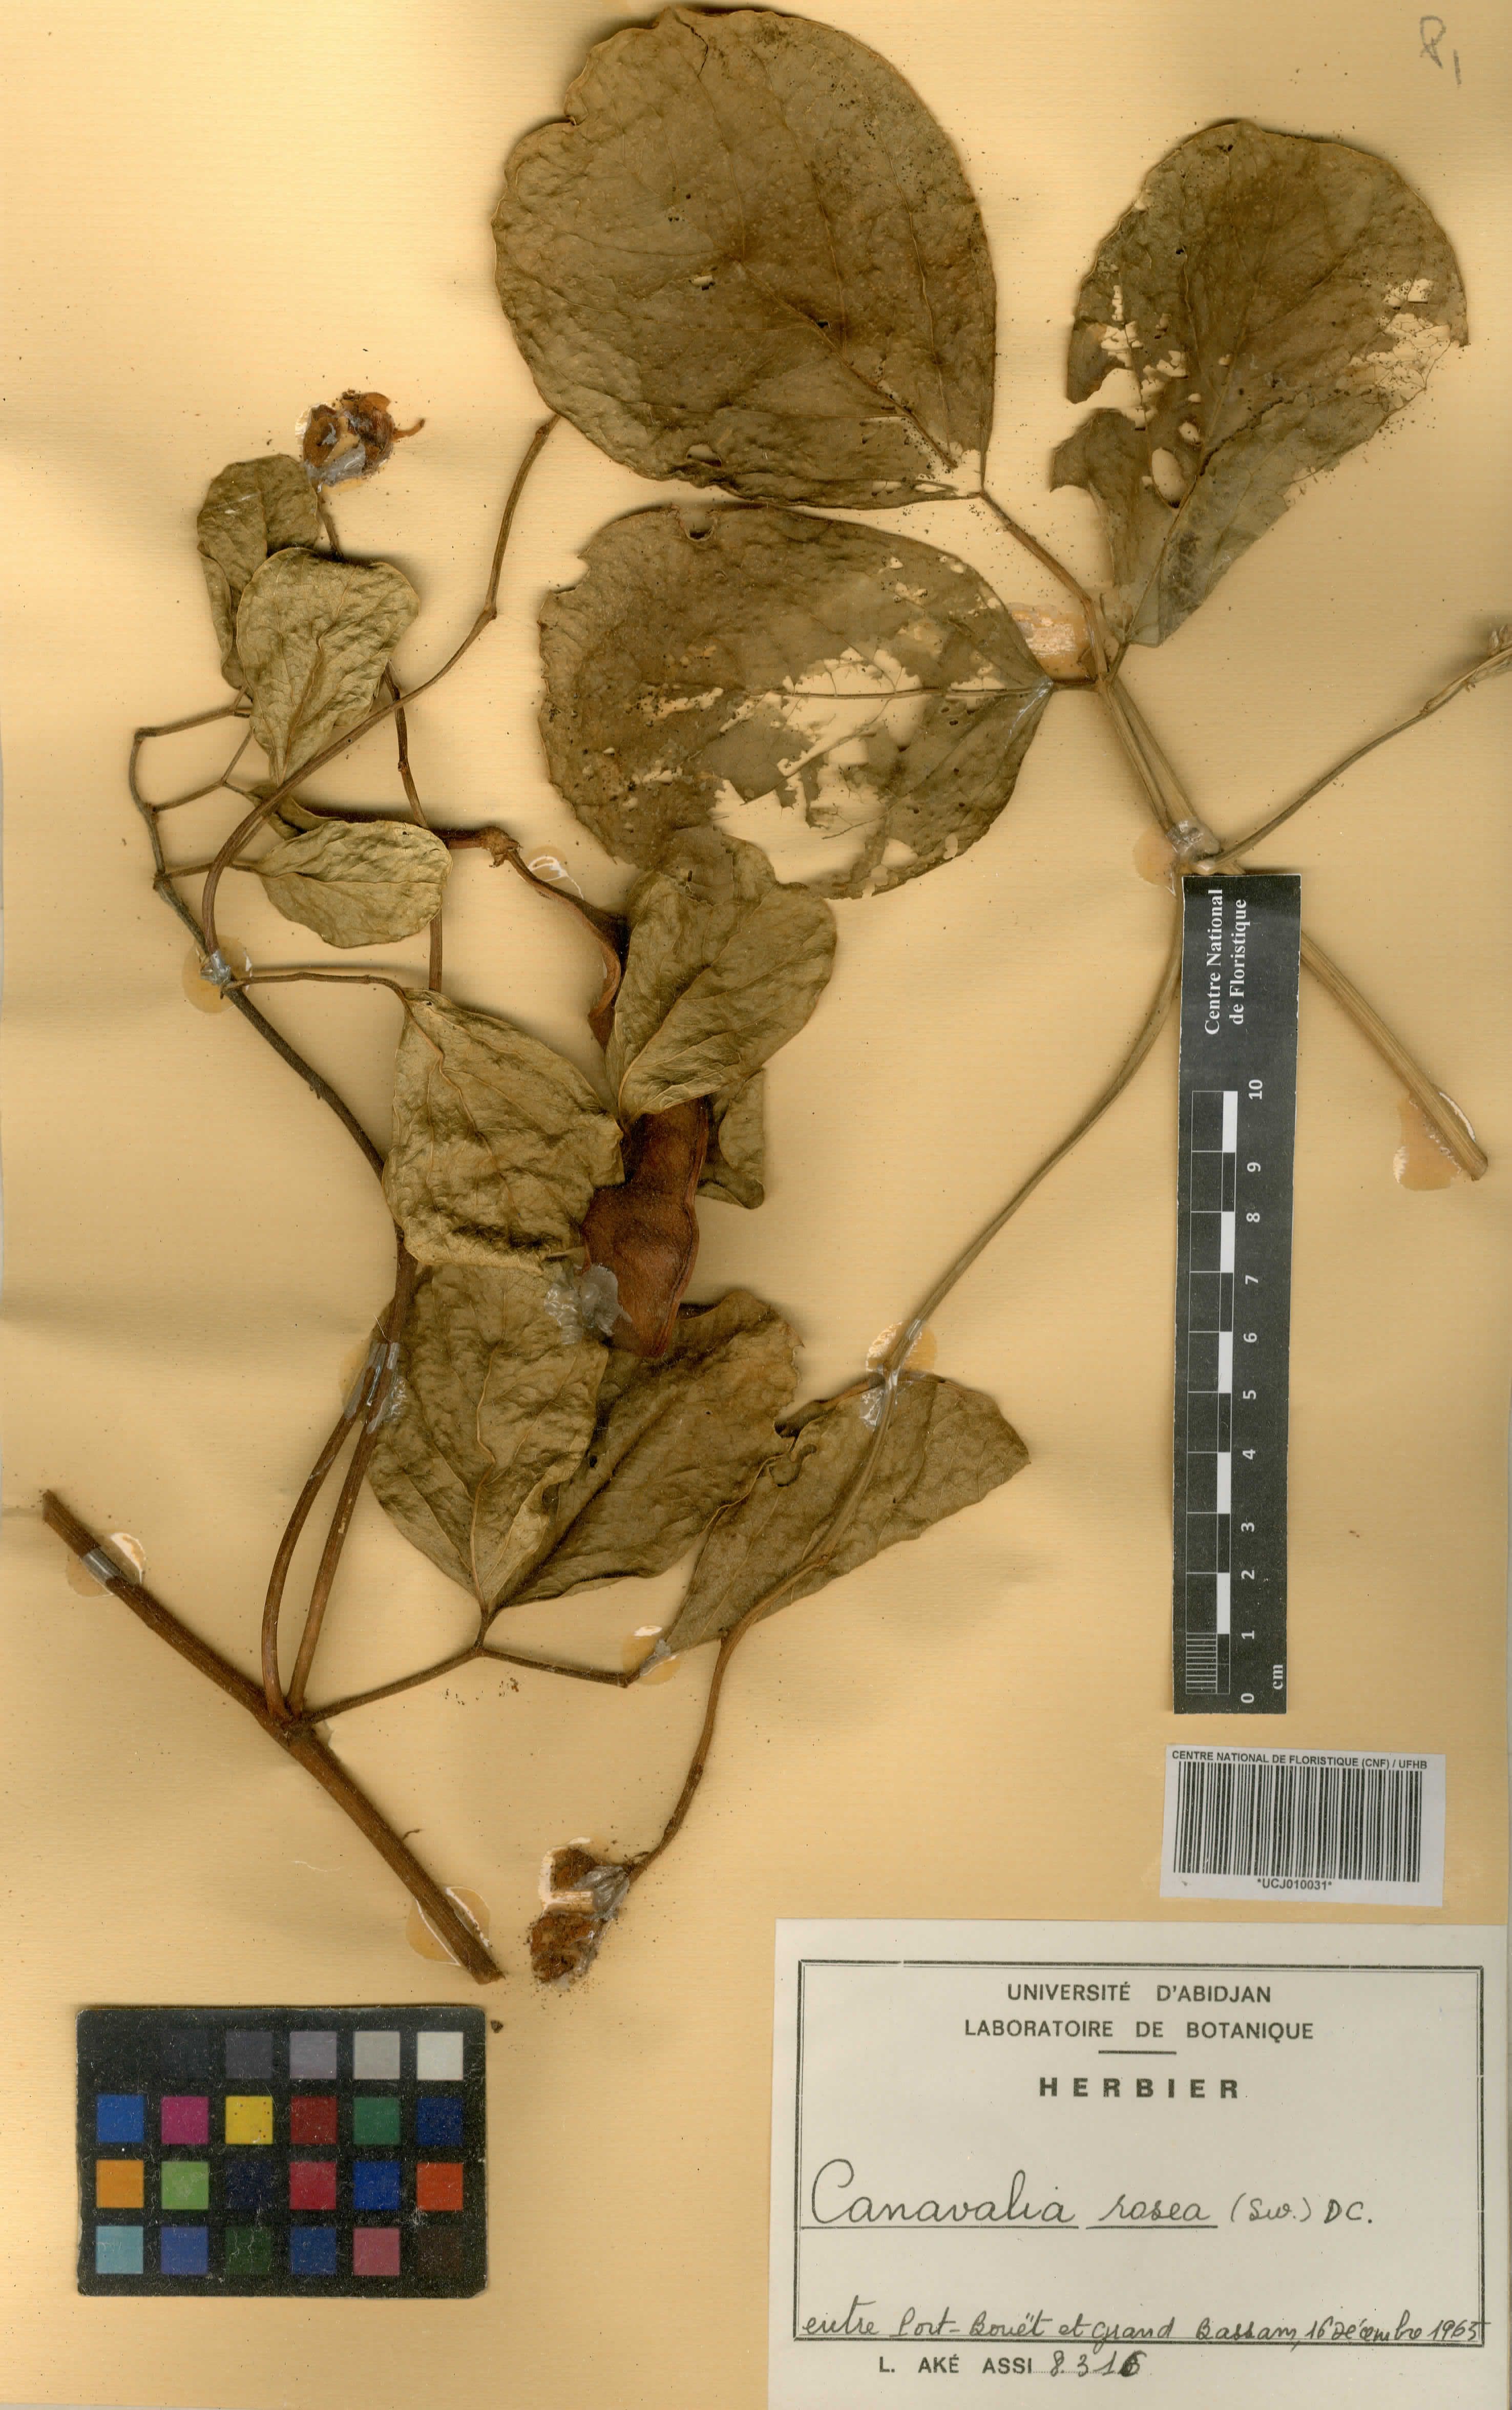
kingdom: Plantae
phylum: Tracheophyta
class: Magnoliopsida
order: Fabales
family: Fabaceae
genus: Canavalia
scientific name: Canavalia rosea
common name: Beach-bean
